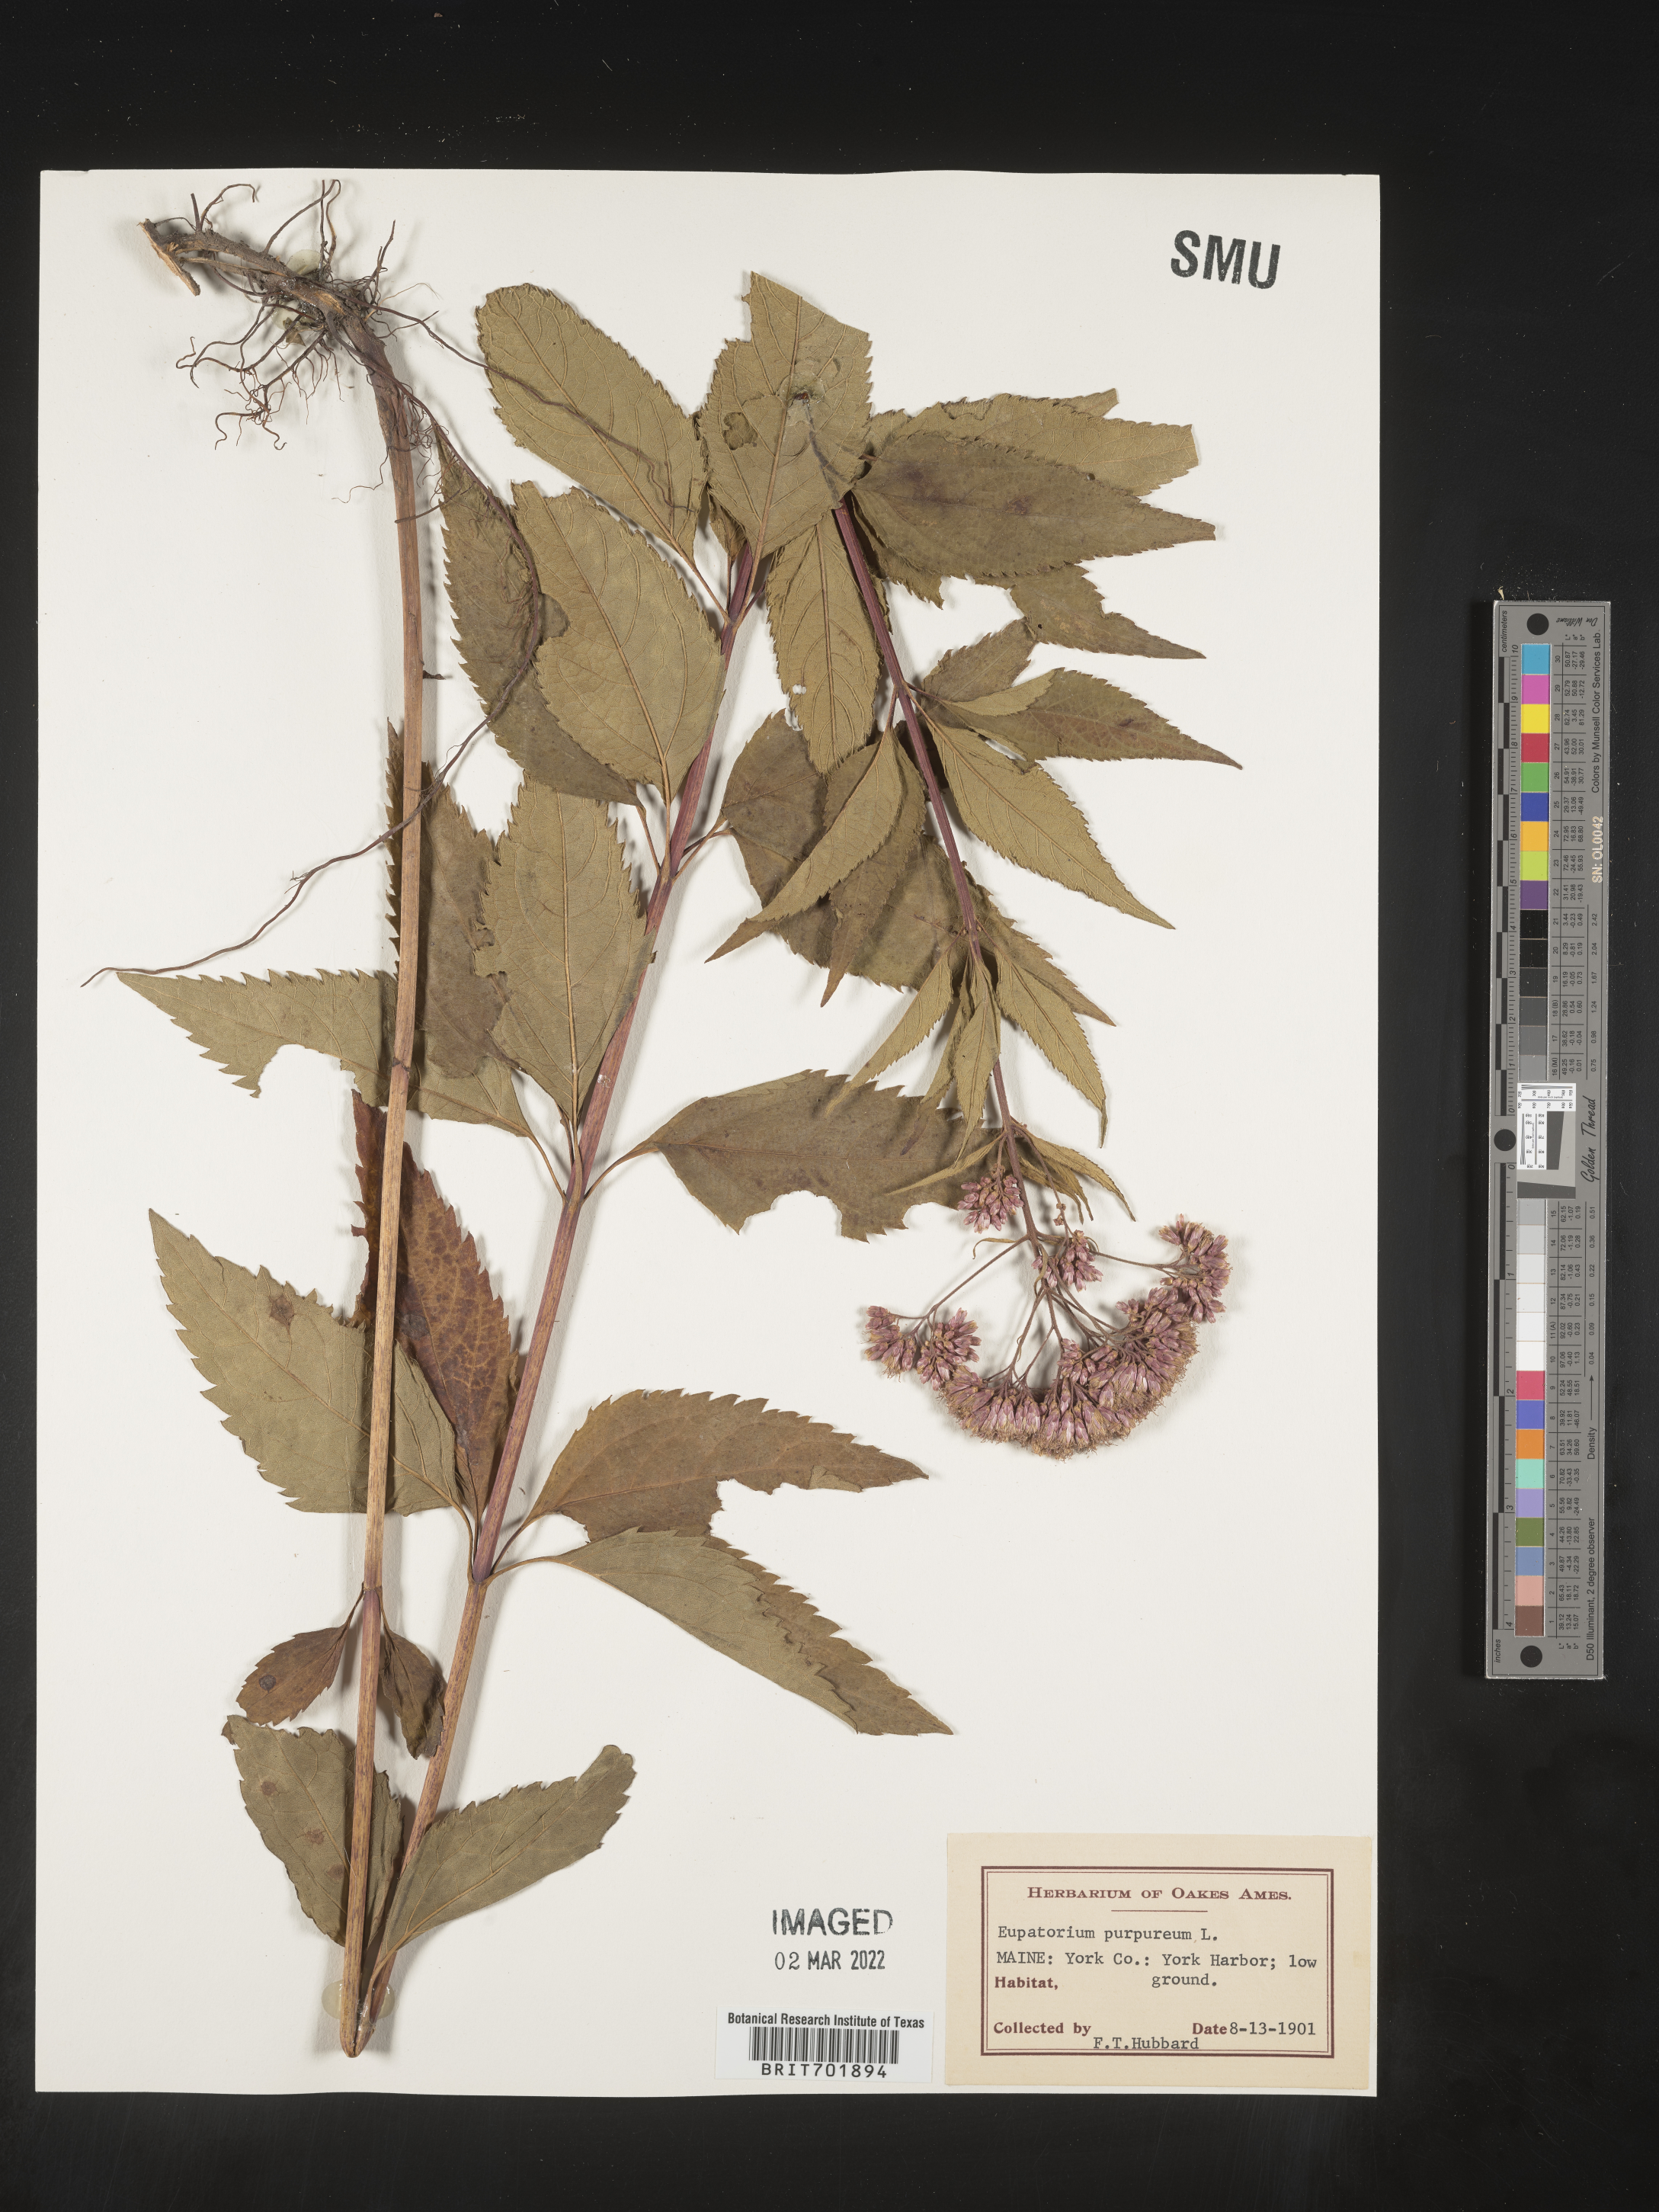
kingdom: Plantae
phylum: Tracheophyta
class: Magnoliopsida
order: Asterales
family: Asteraceae
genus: Eupatorium
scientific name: Eupatorium quaternum
